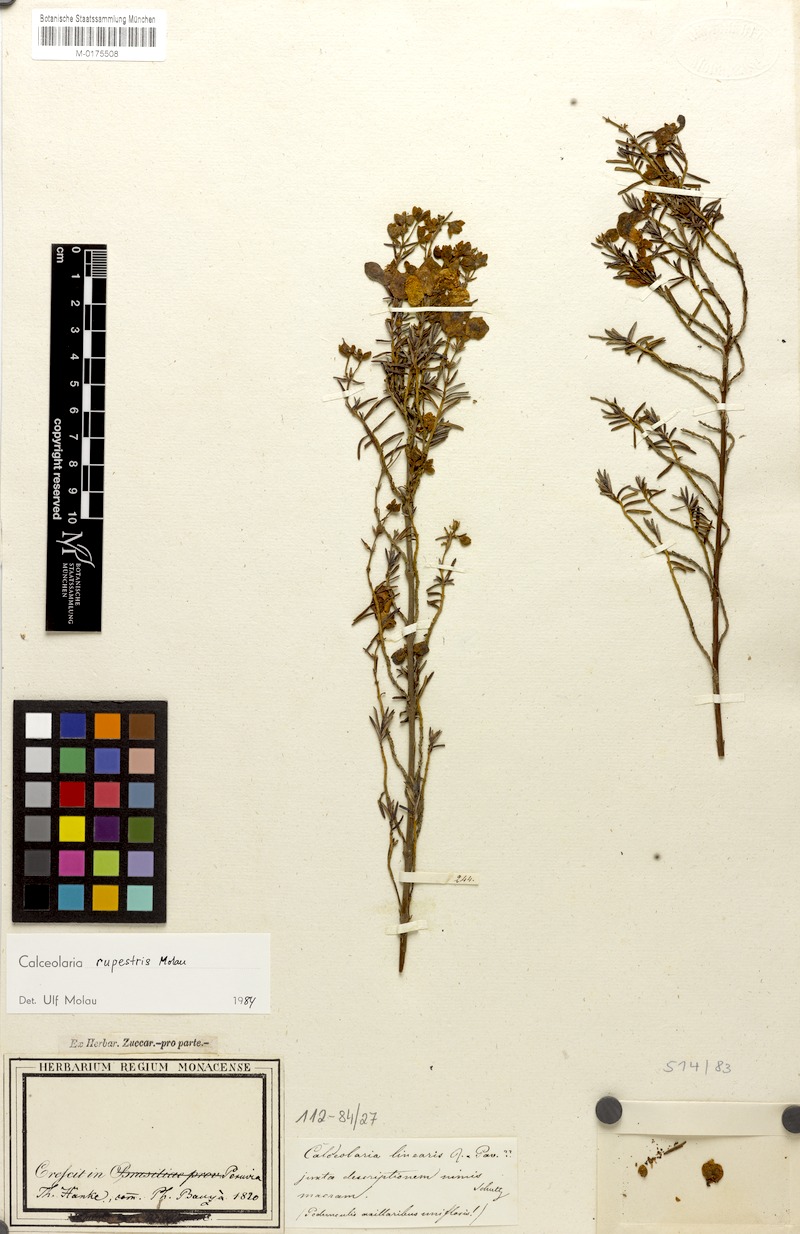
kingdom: Plantae
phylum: Tracheophyta
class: Magnoliopsida
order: Lamiales
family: Calceolariaceae
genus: Calceolaria
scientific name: Calceolaria rupestris
